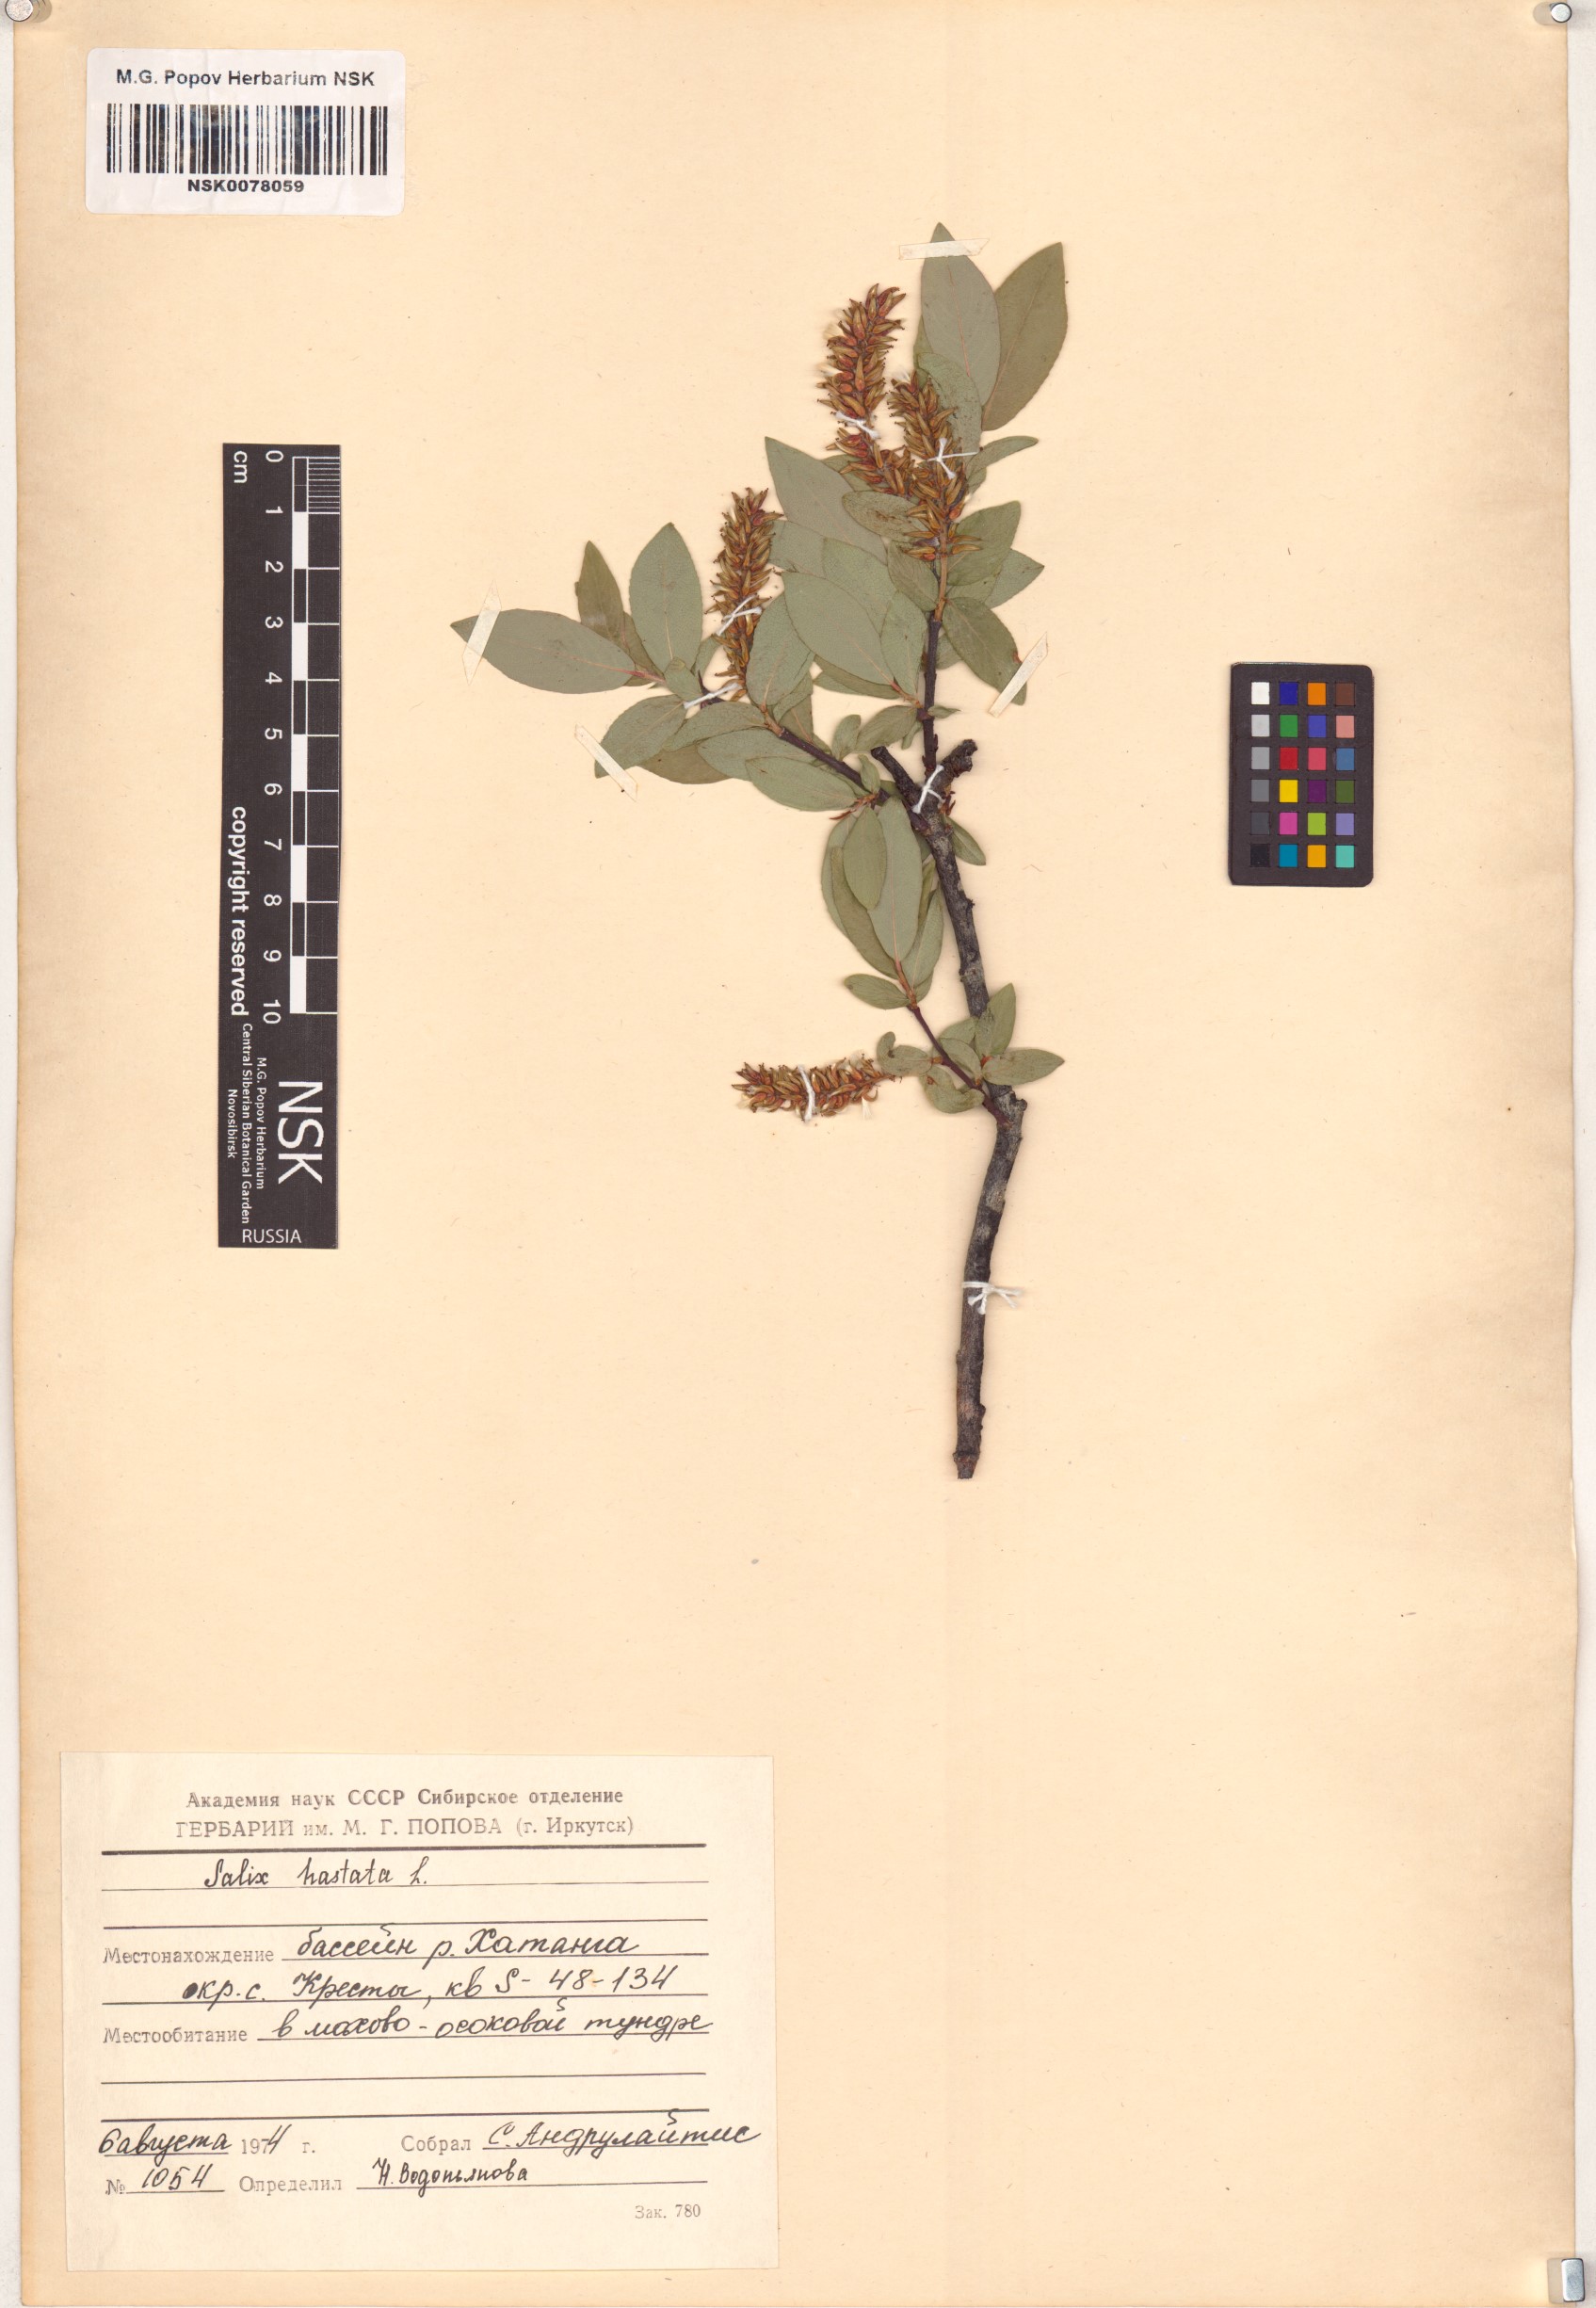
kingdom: Plantae
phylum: Tracheophyta
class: Magnoliopsida
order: Malpighiales
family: Salicaceae
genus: Salix
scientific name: Salix hastata
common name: Halberd willow
